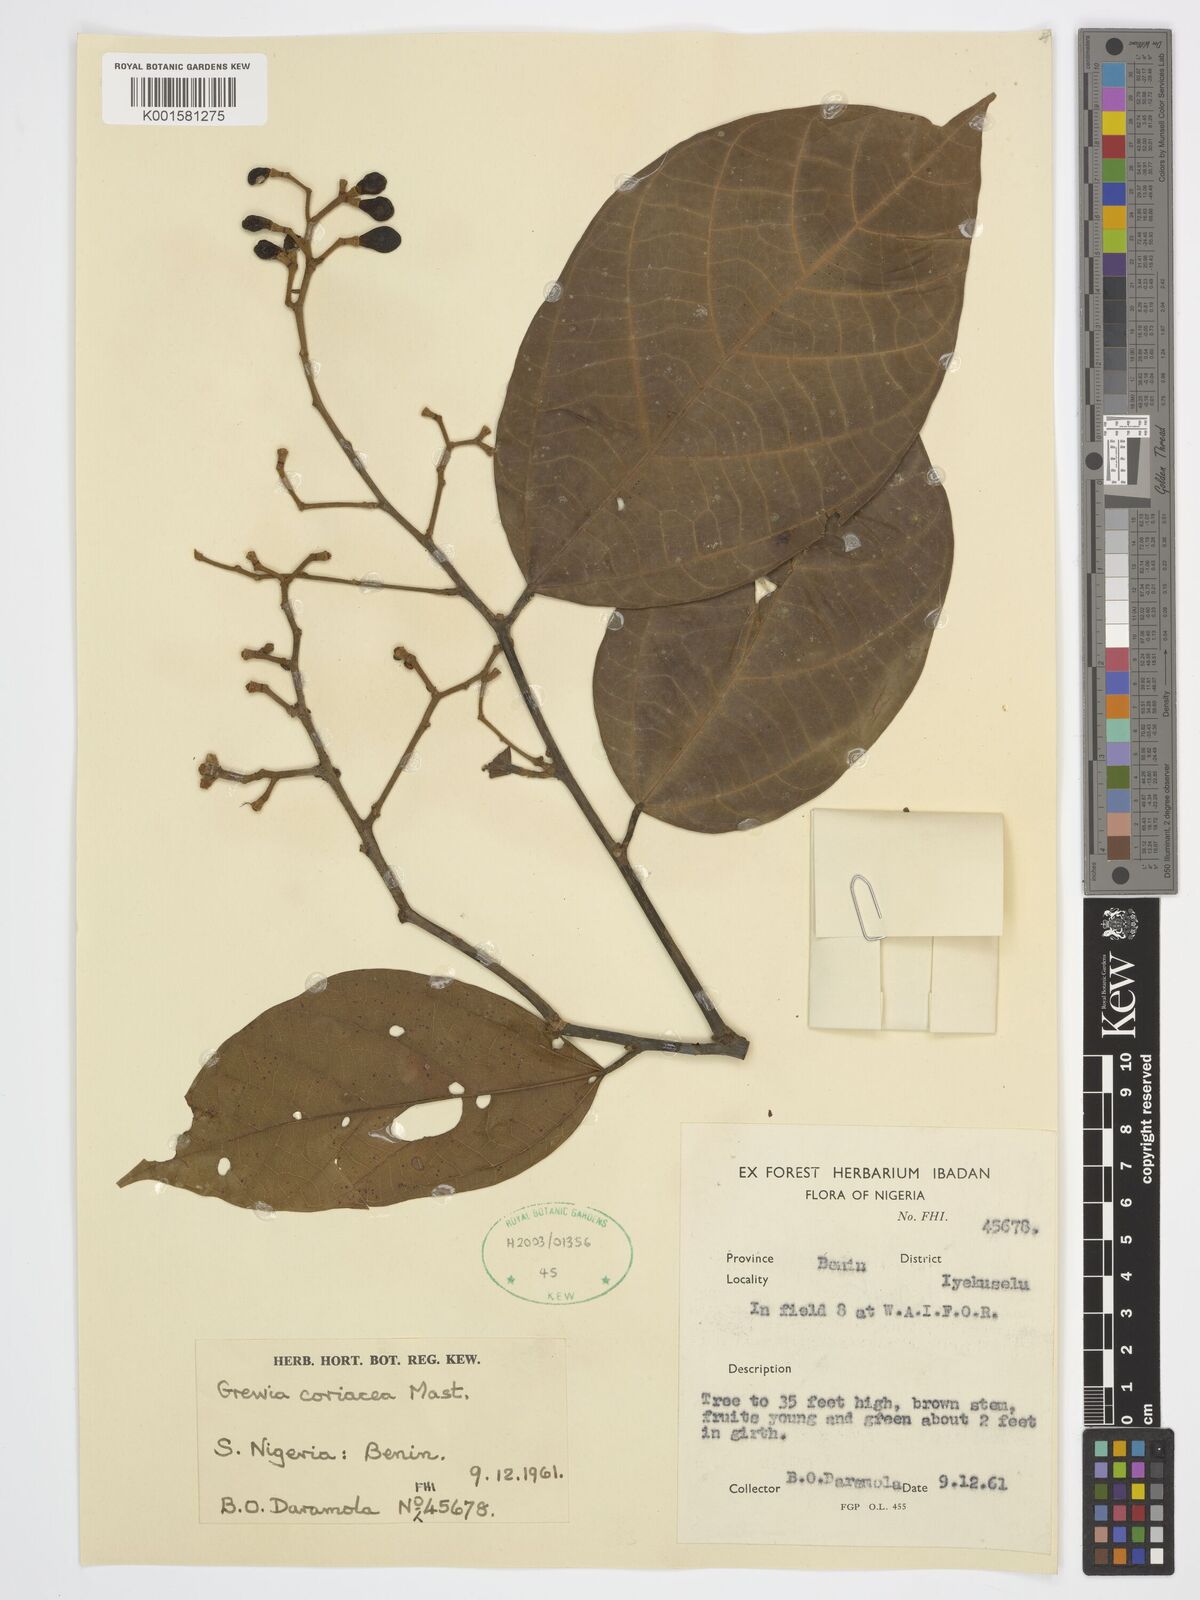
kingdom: Plantae
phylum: Tracheophyta
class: Magnoliopsida
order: Malvales
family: Malvaceae
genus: Microcos
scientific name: Microcos coriacea
